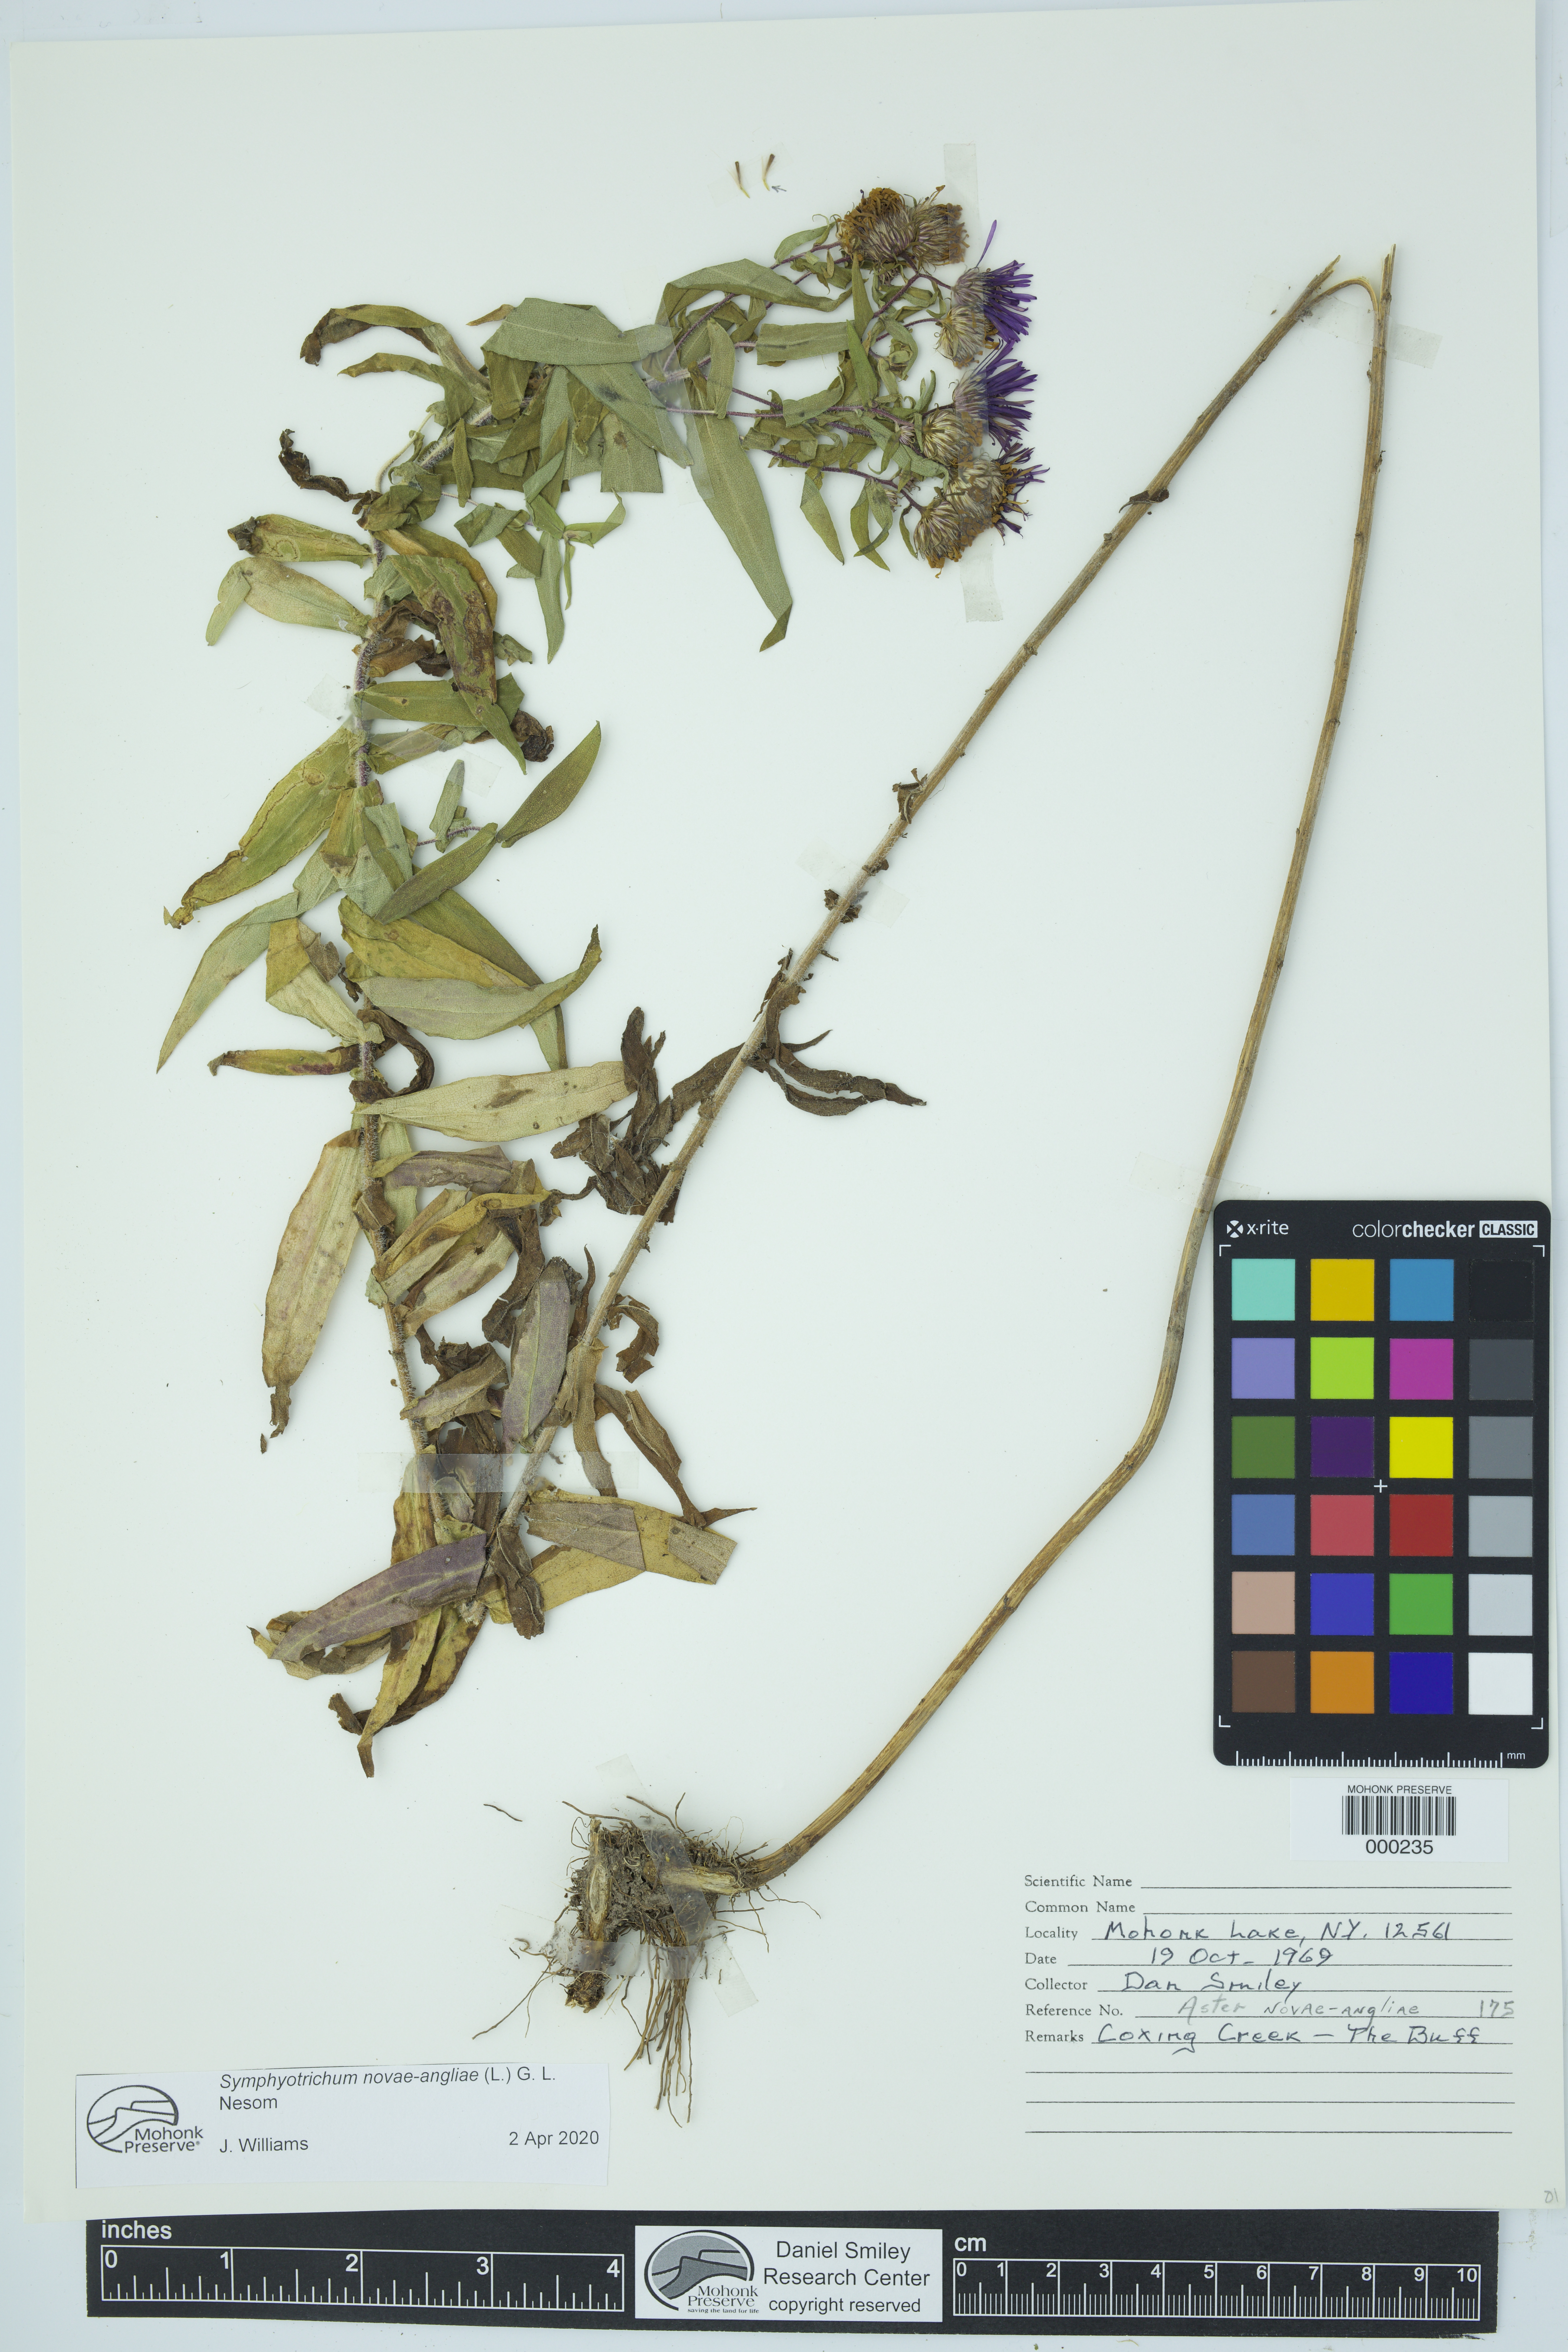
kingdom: Plantae
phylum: Tracheophyta
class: Magnoliopsida
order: Asterales
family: Asteraceae
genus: Aster
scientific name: Aster
